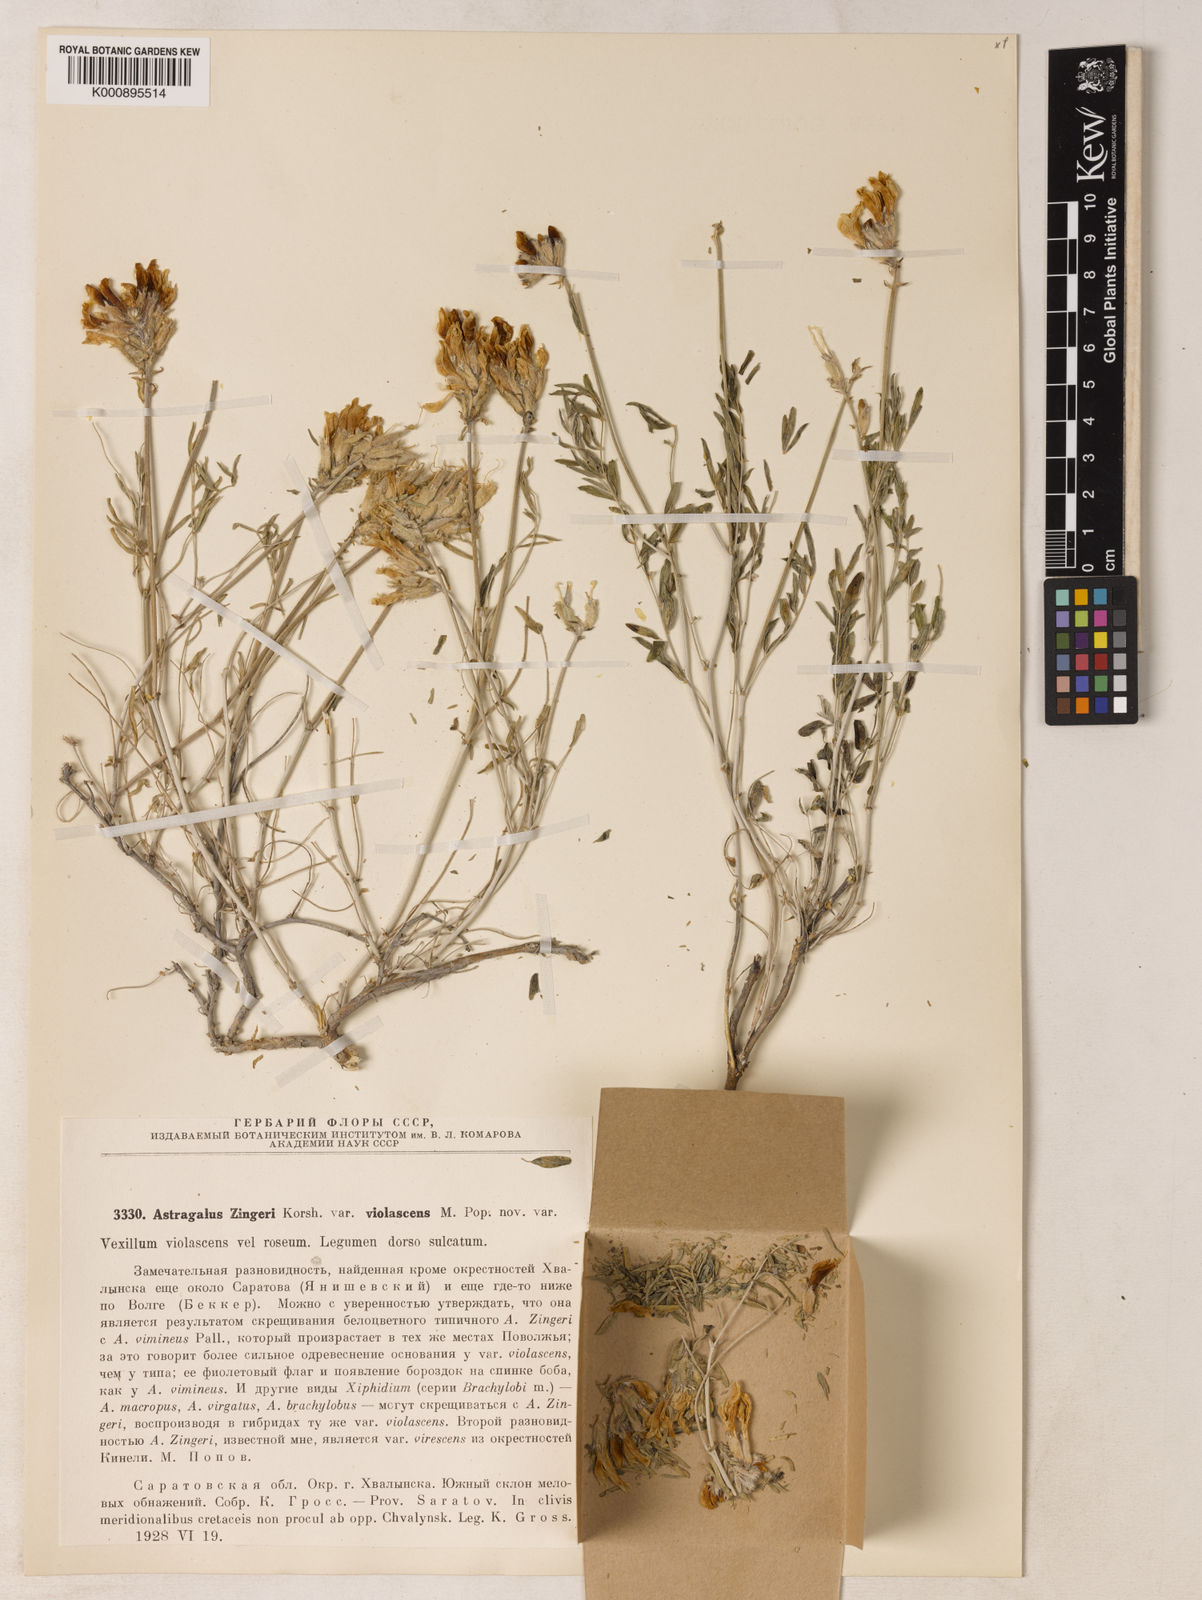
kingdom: Plantae
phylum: Tracheophyta
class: Magnoliopsida
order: Fabales
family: Fabaceae
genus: Astragalus
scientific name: Astragalus zingeri
